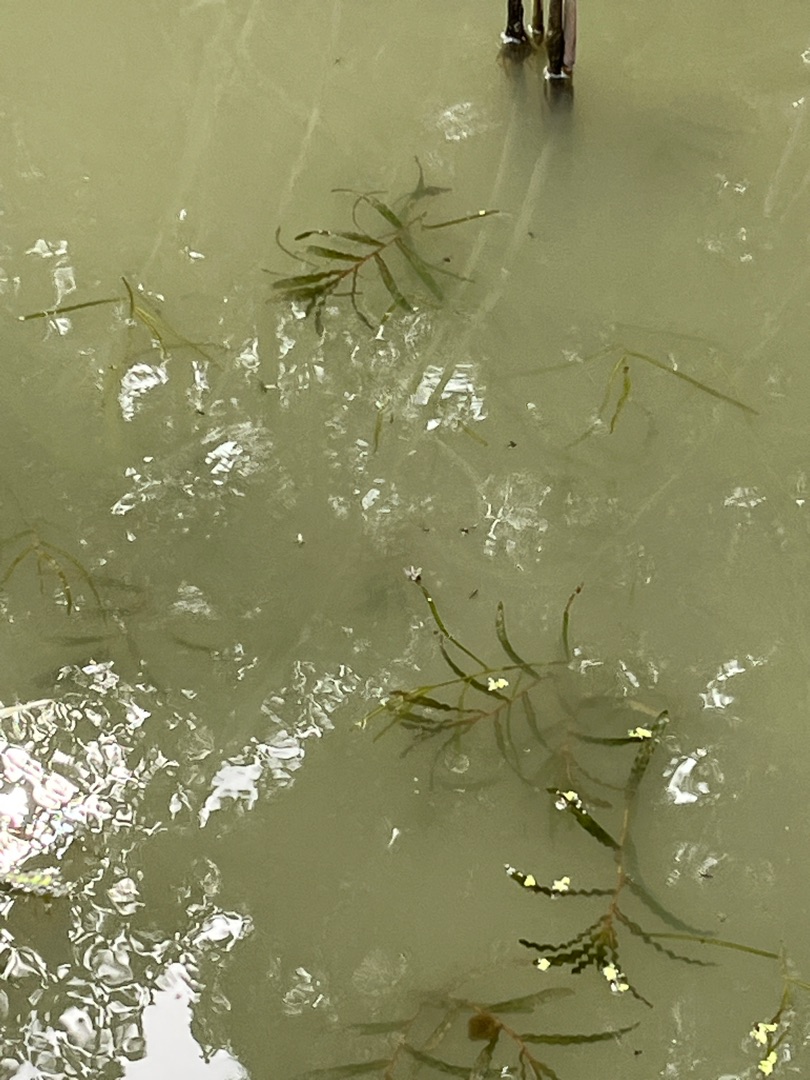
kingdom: Plantae
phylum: Tracheophyta
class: Liliopsida
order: Alismatales
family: Potamogetonaceae
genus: Potamogeton
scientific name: Potamogeton crispus
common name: Kruset vandaks
